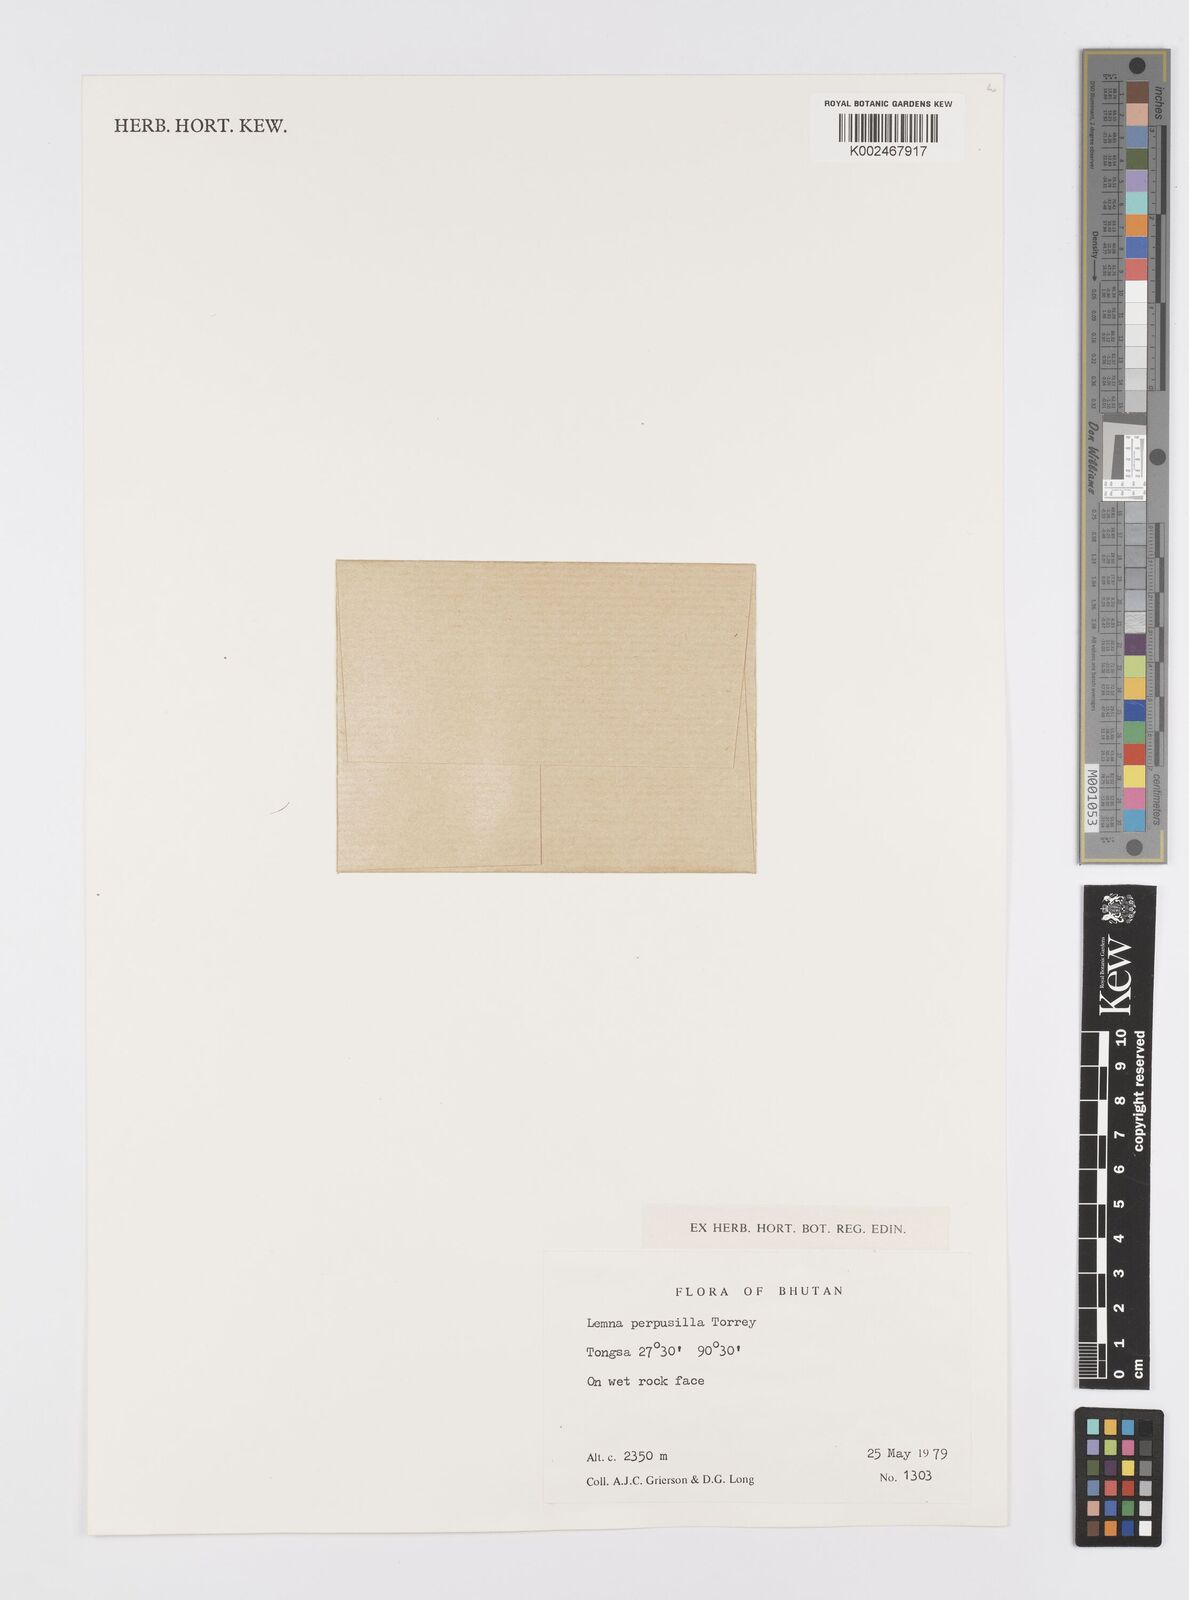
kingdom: Plantae
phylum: Tracheophyta
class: Liliopsida
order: Alismatales
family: Araceae
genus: Lemna
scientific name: Lemna perpusilla
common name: Duckweed
